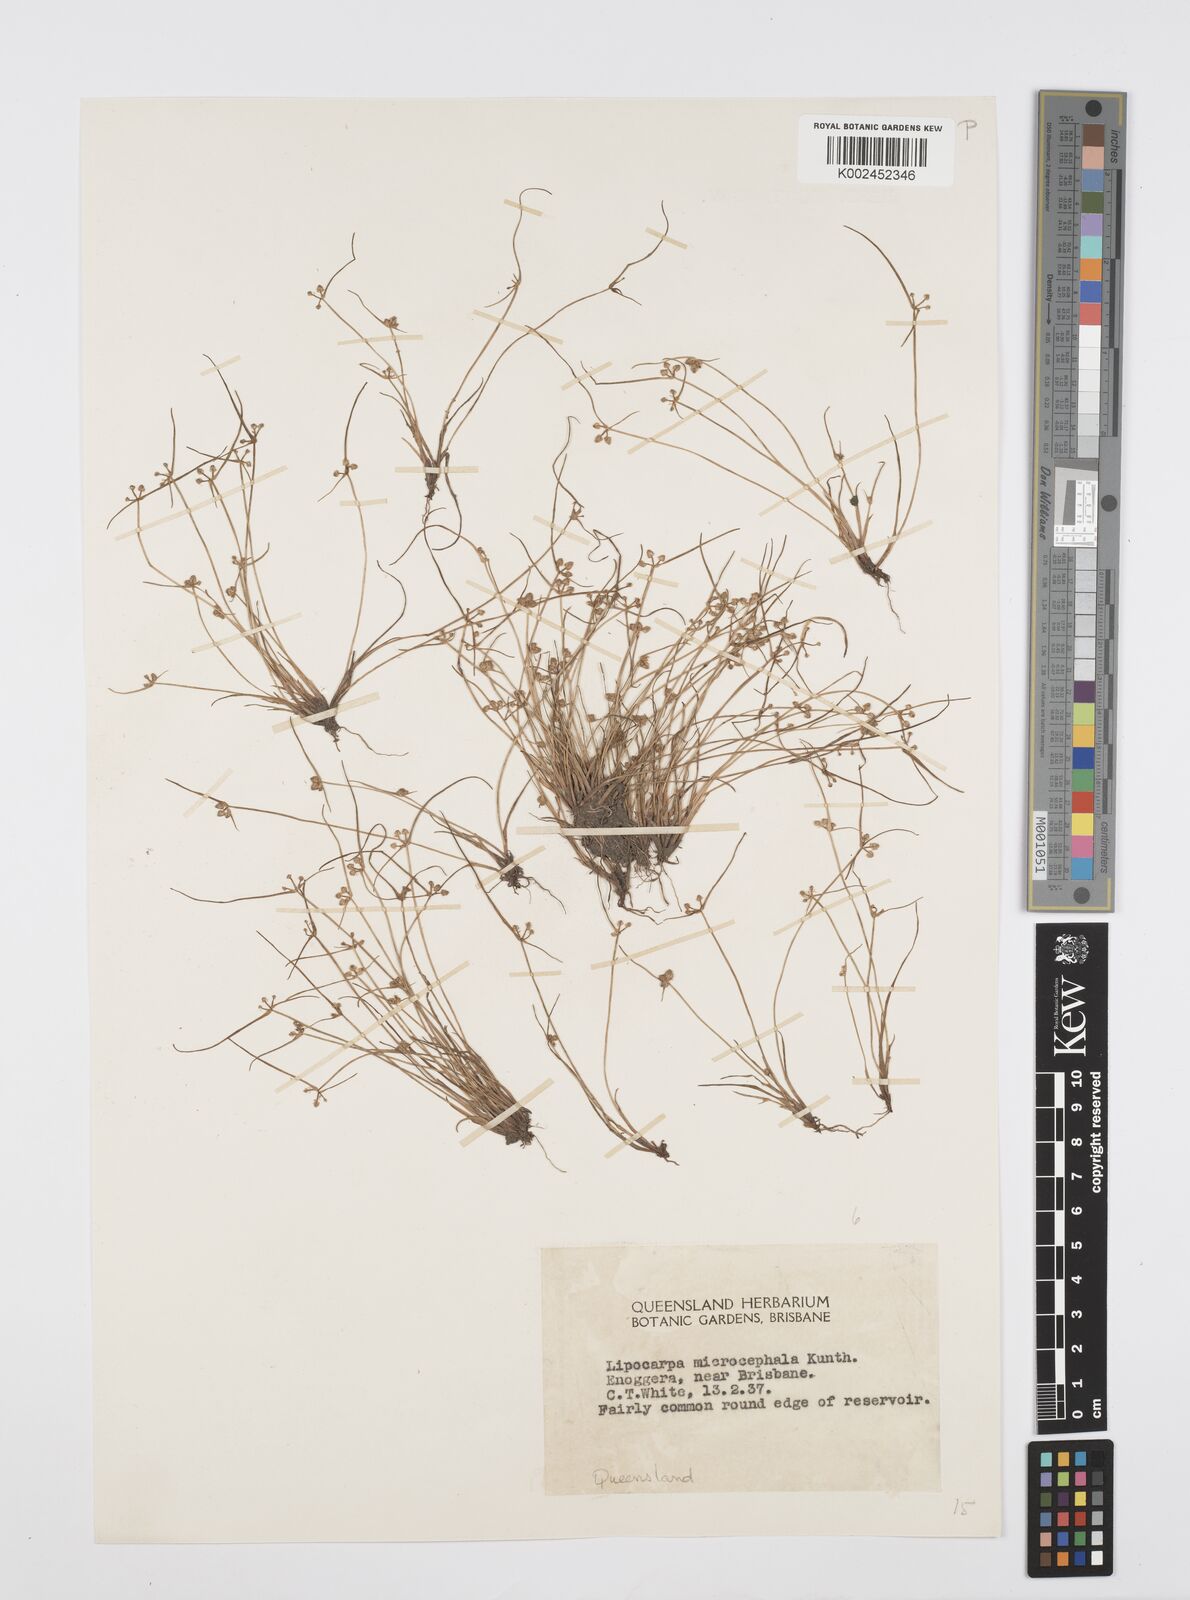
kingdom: Plantae
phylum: Tracheophyta
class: Liliopsida
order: Poales
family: Cyperaceae
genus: Cyperus
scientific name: Cyperus microcephalus
